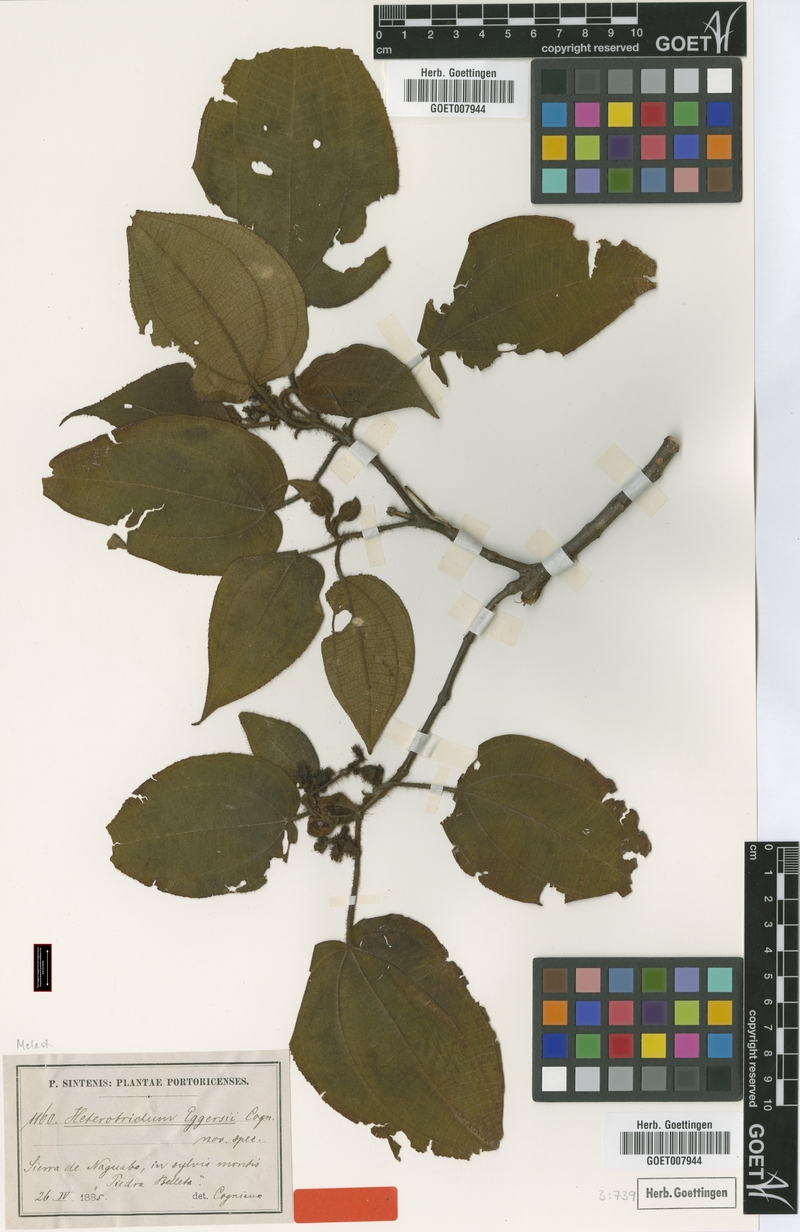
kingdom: Plantae
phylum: Tracheophyta
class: Magnoliopsida
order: Myrtales
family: Melastomataceae
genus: Miconia
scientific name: Miconia umbellata
